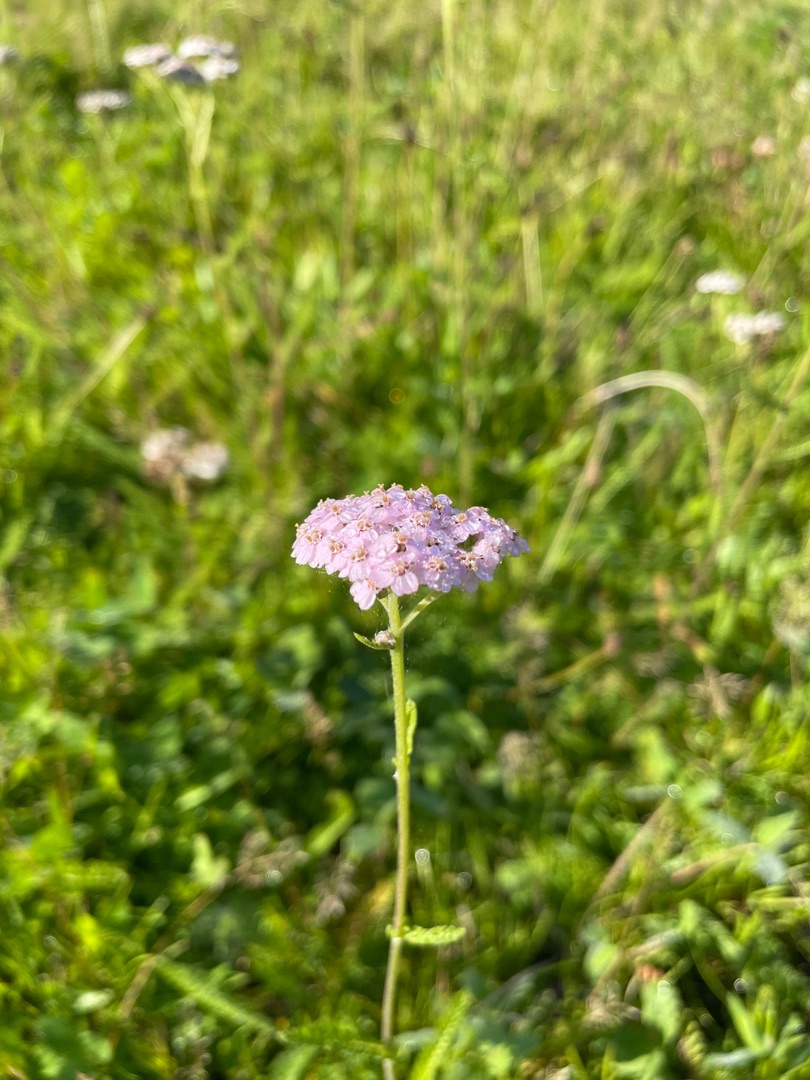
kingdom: Plantae
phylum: Tracheophyta
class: Magnoliopsida
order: Asterales
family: Asteraceae
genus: Achillea
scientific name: Achillea millefolium
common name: Almindelig røllike
